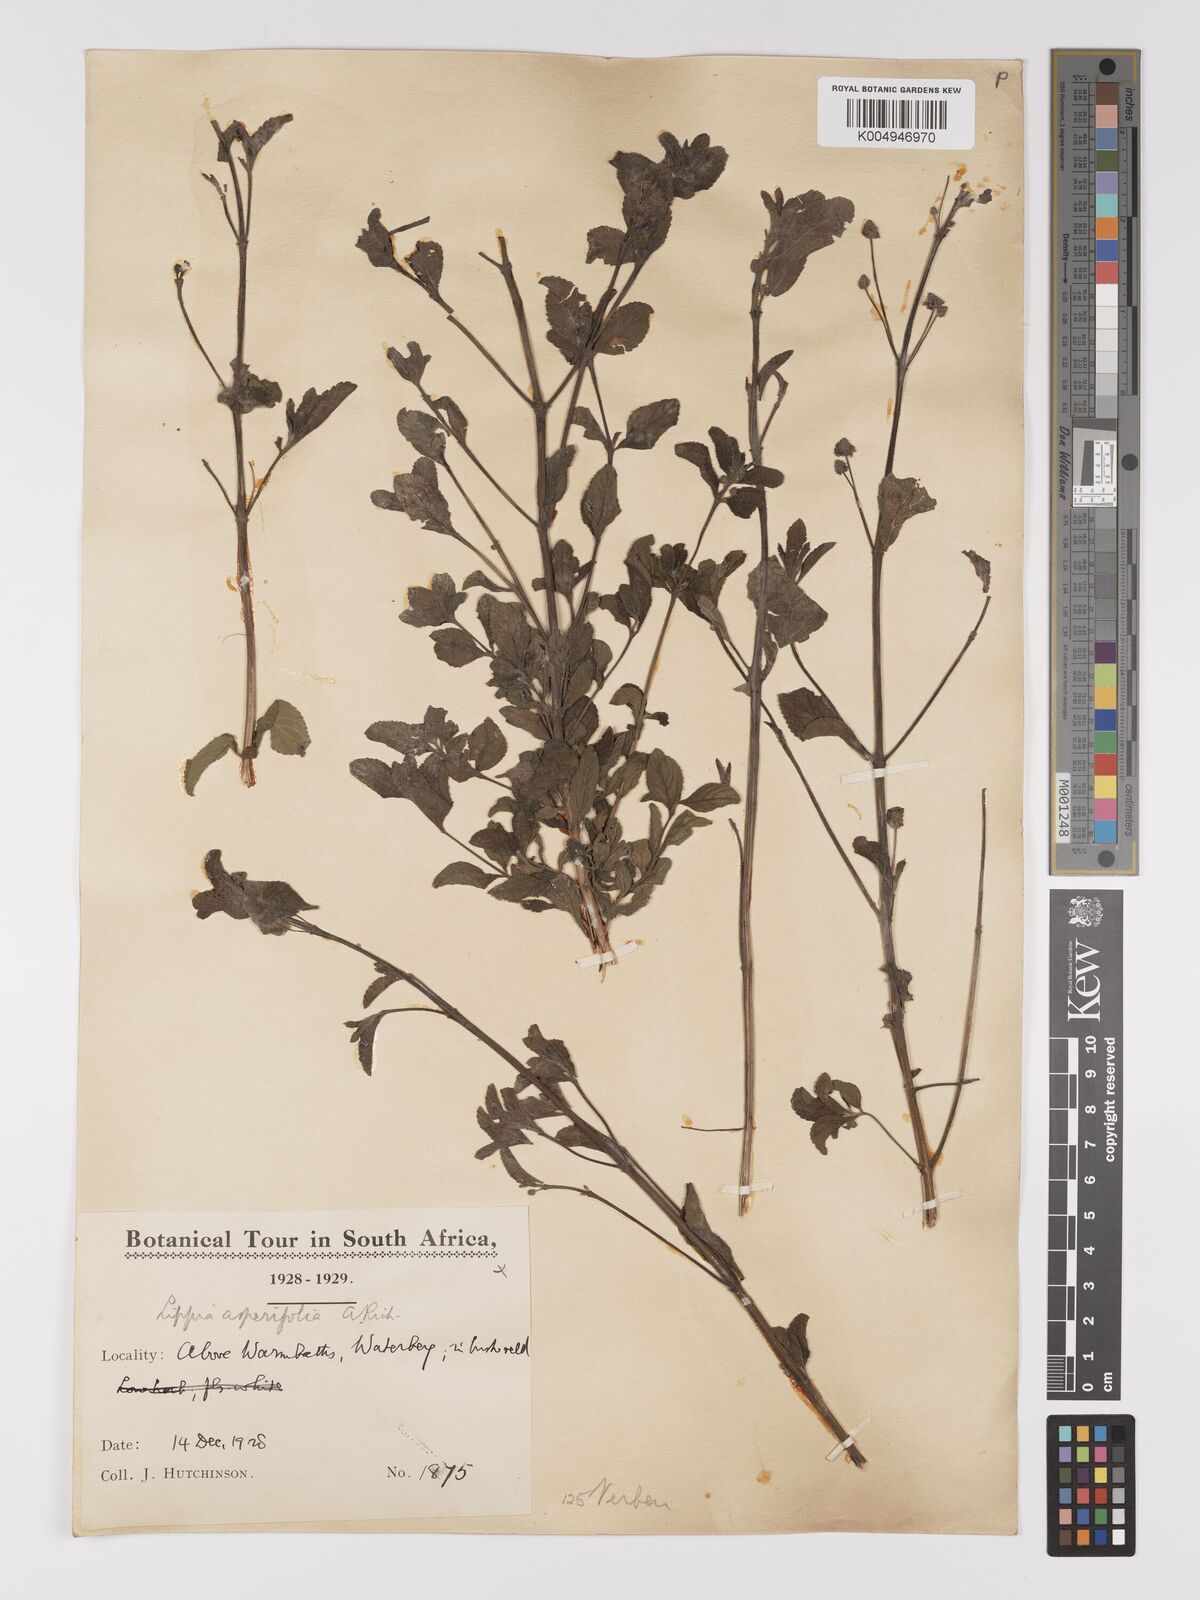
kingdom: Plantae
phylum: Tracheophyta
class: Magnoliopsida
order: Lamiales
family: Verbenaceae
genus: Lippia
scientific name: Lippia
